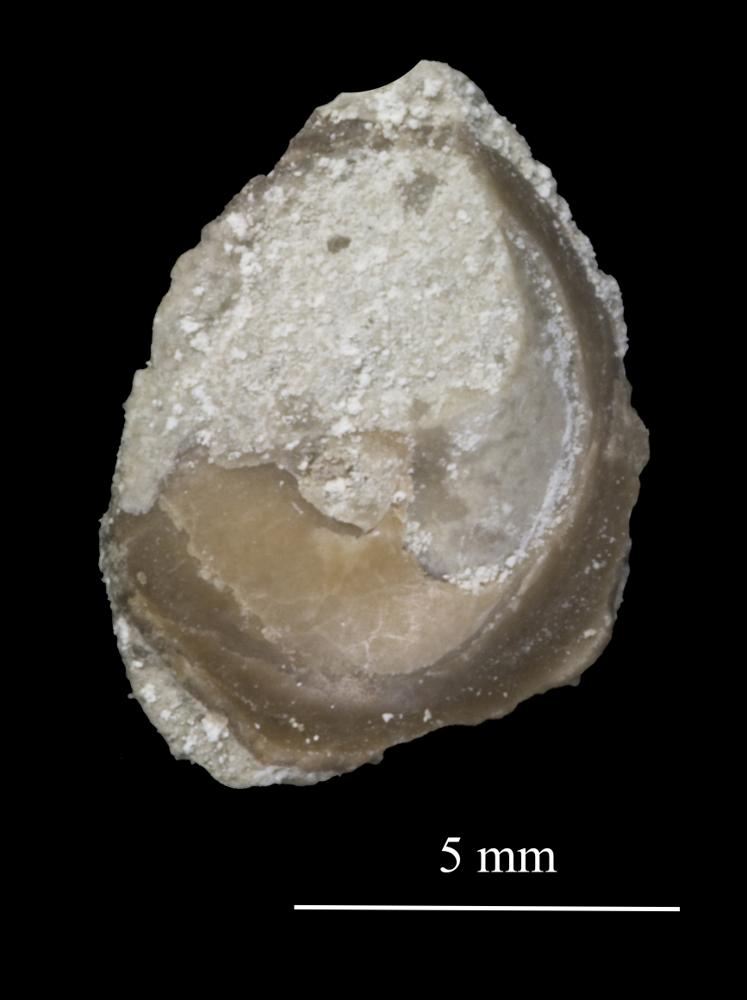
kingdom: Animalia
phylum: Mollusca
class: Gastropoda
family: Lophospiridae
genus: Lophospira
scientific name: Lophospira Worthenia mickwitzi
